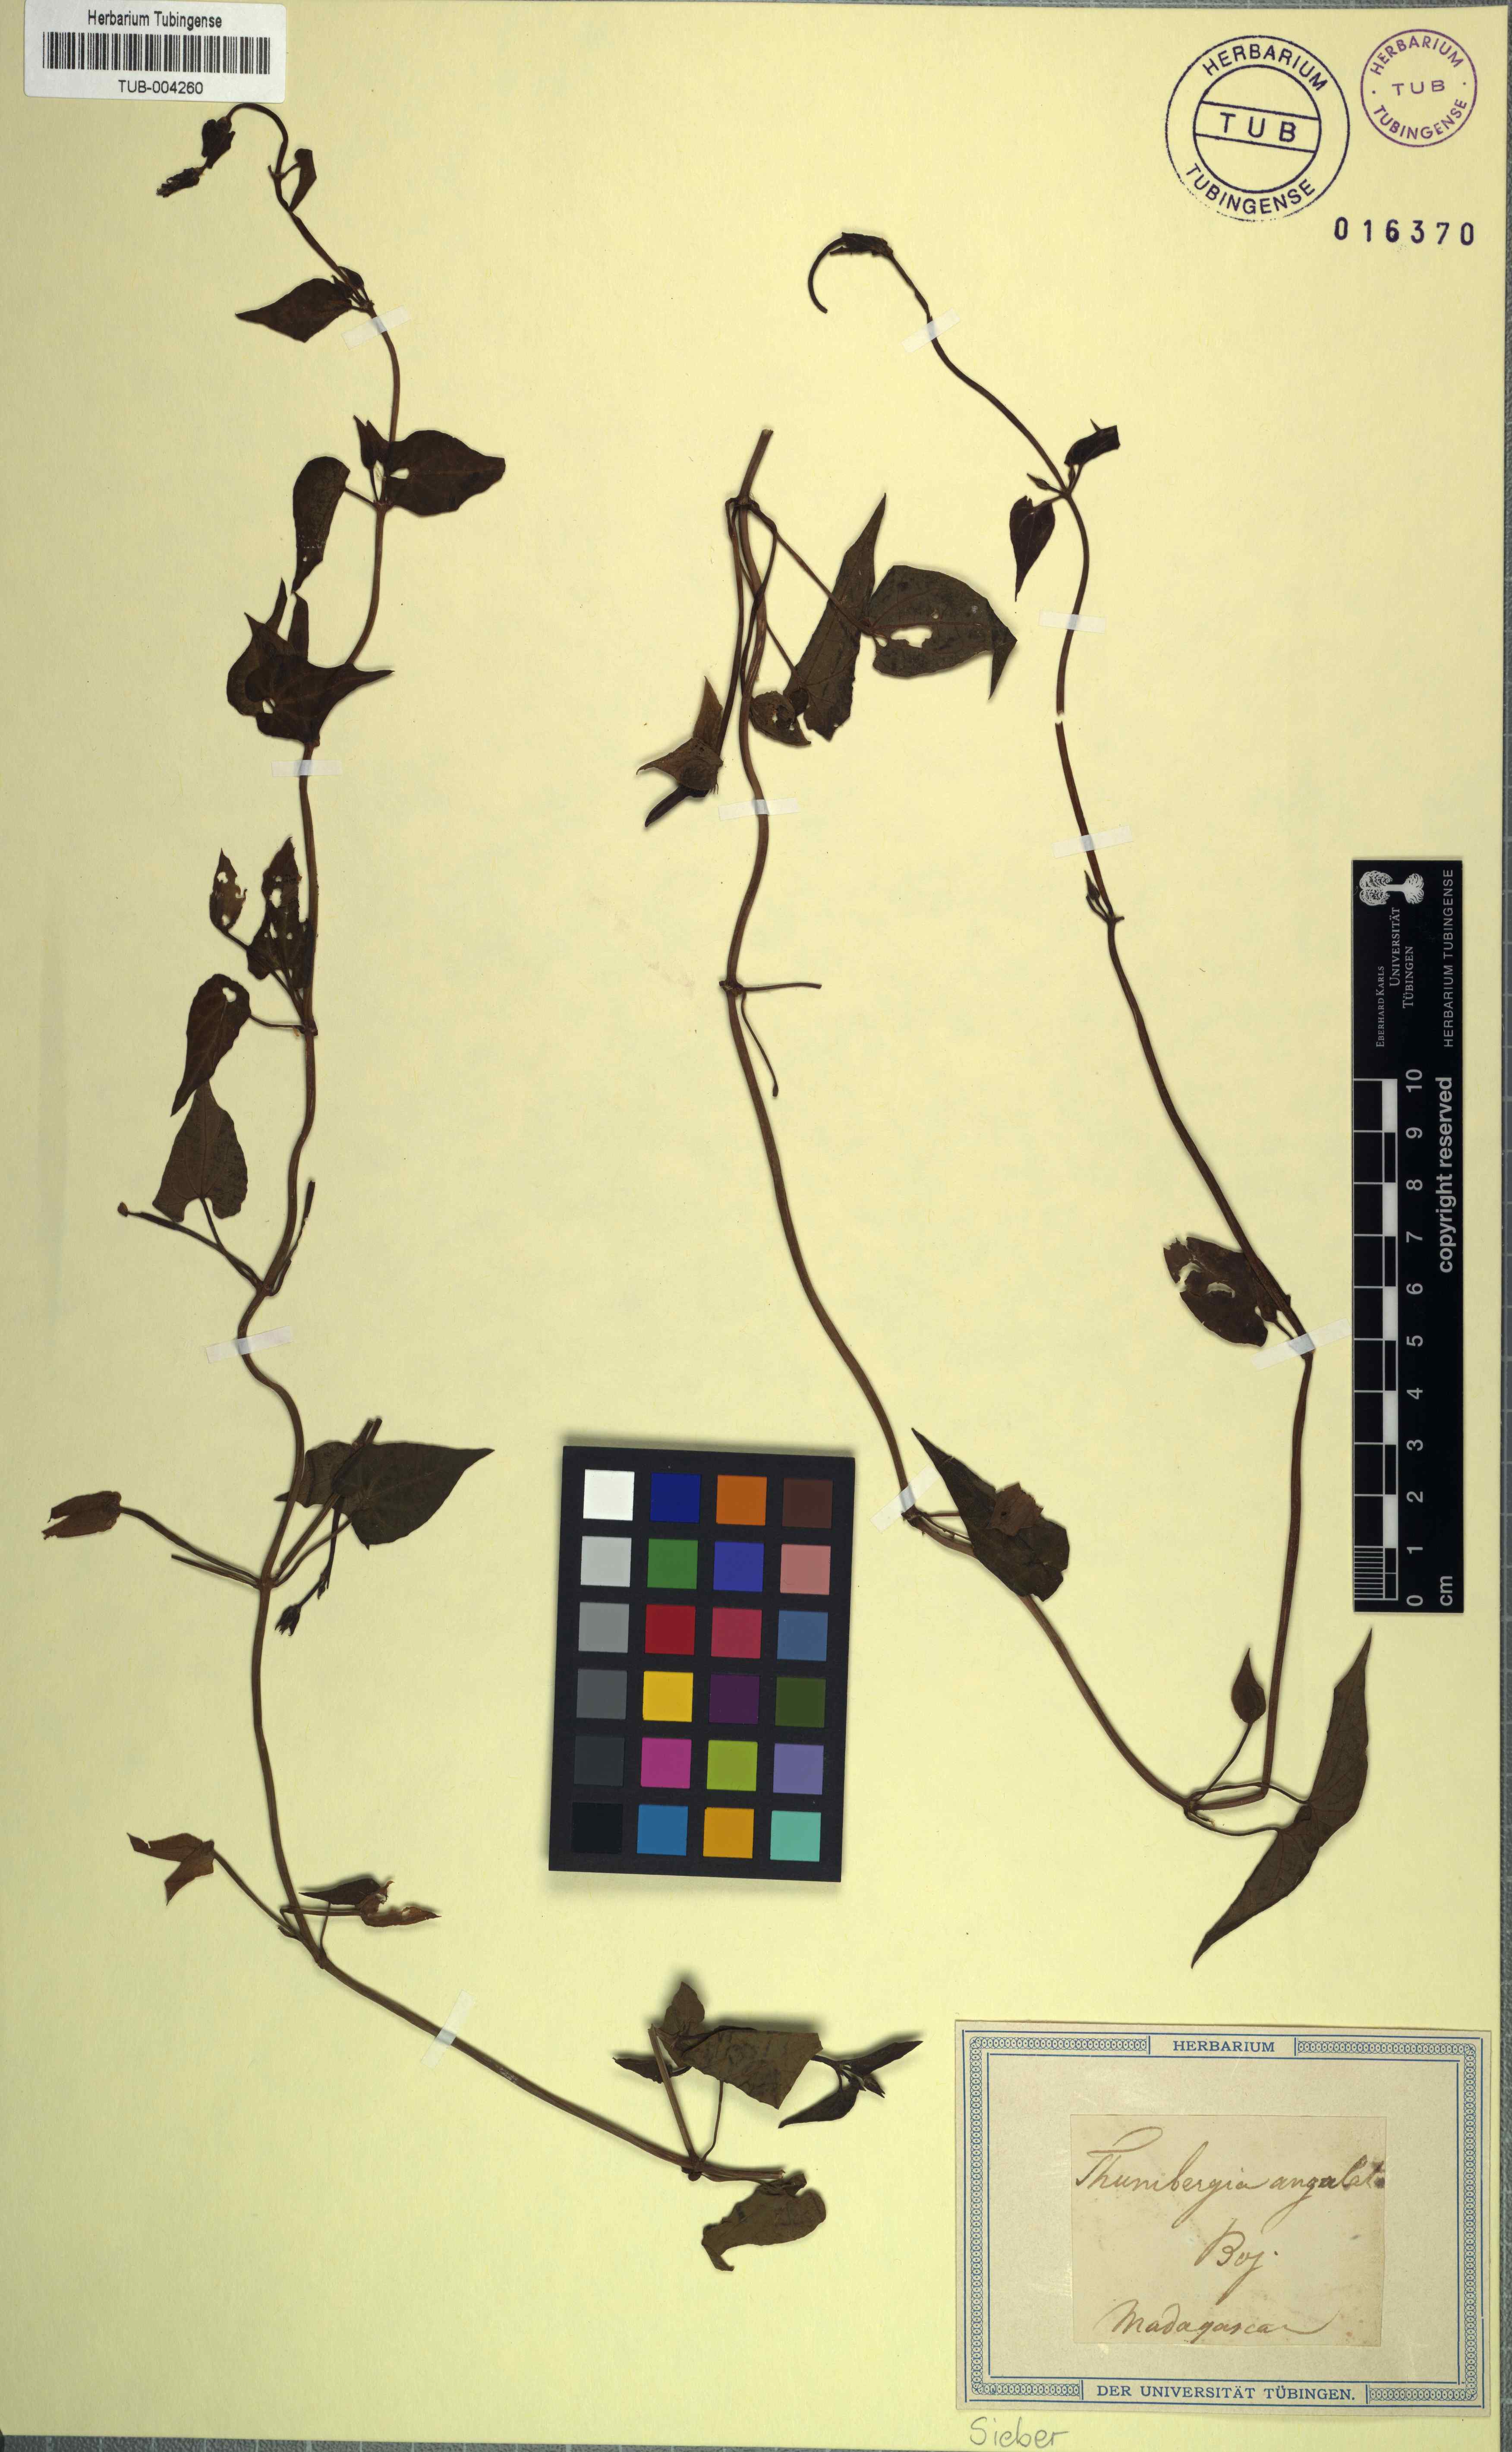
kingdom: Plantae
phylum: Tracheophyta
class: Magnoliopsida
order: Lamiales
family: Acanthaceae
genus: Thunbergia
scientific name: Thunbergia angulata
